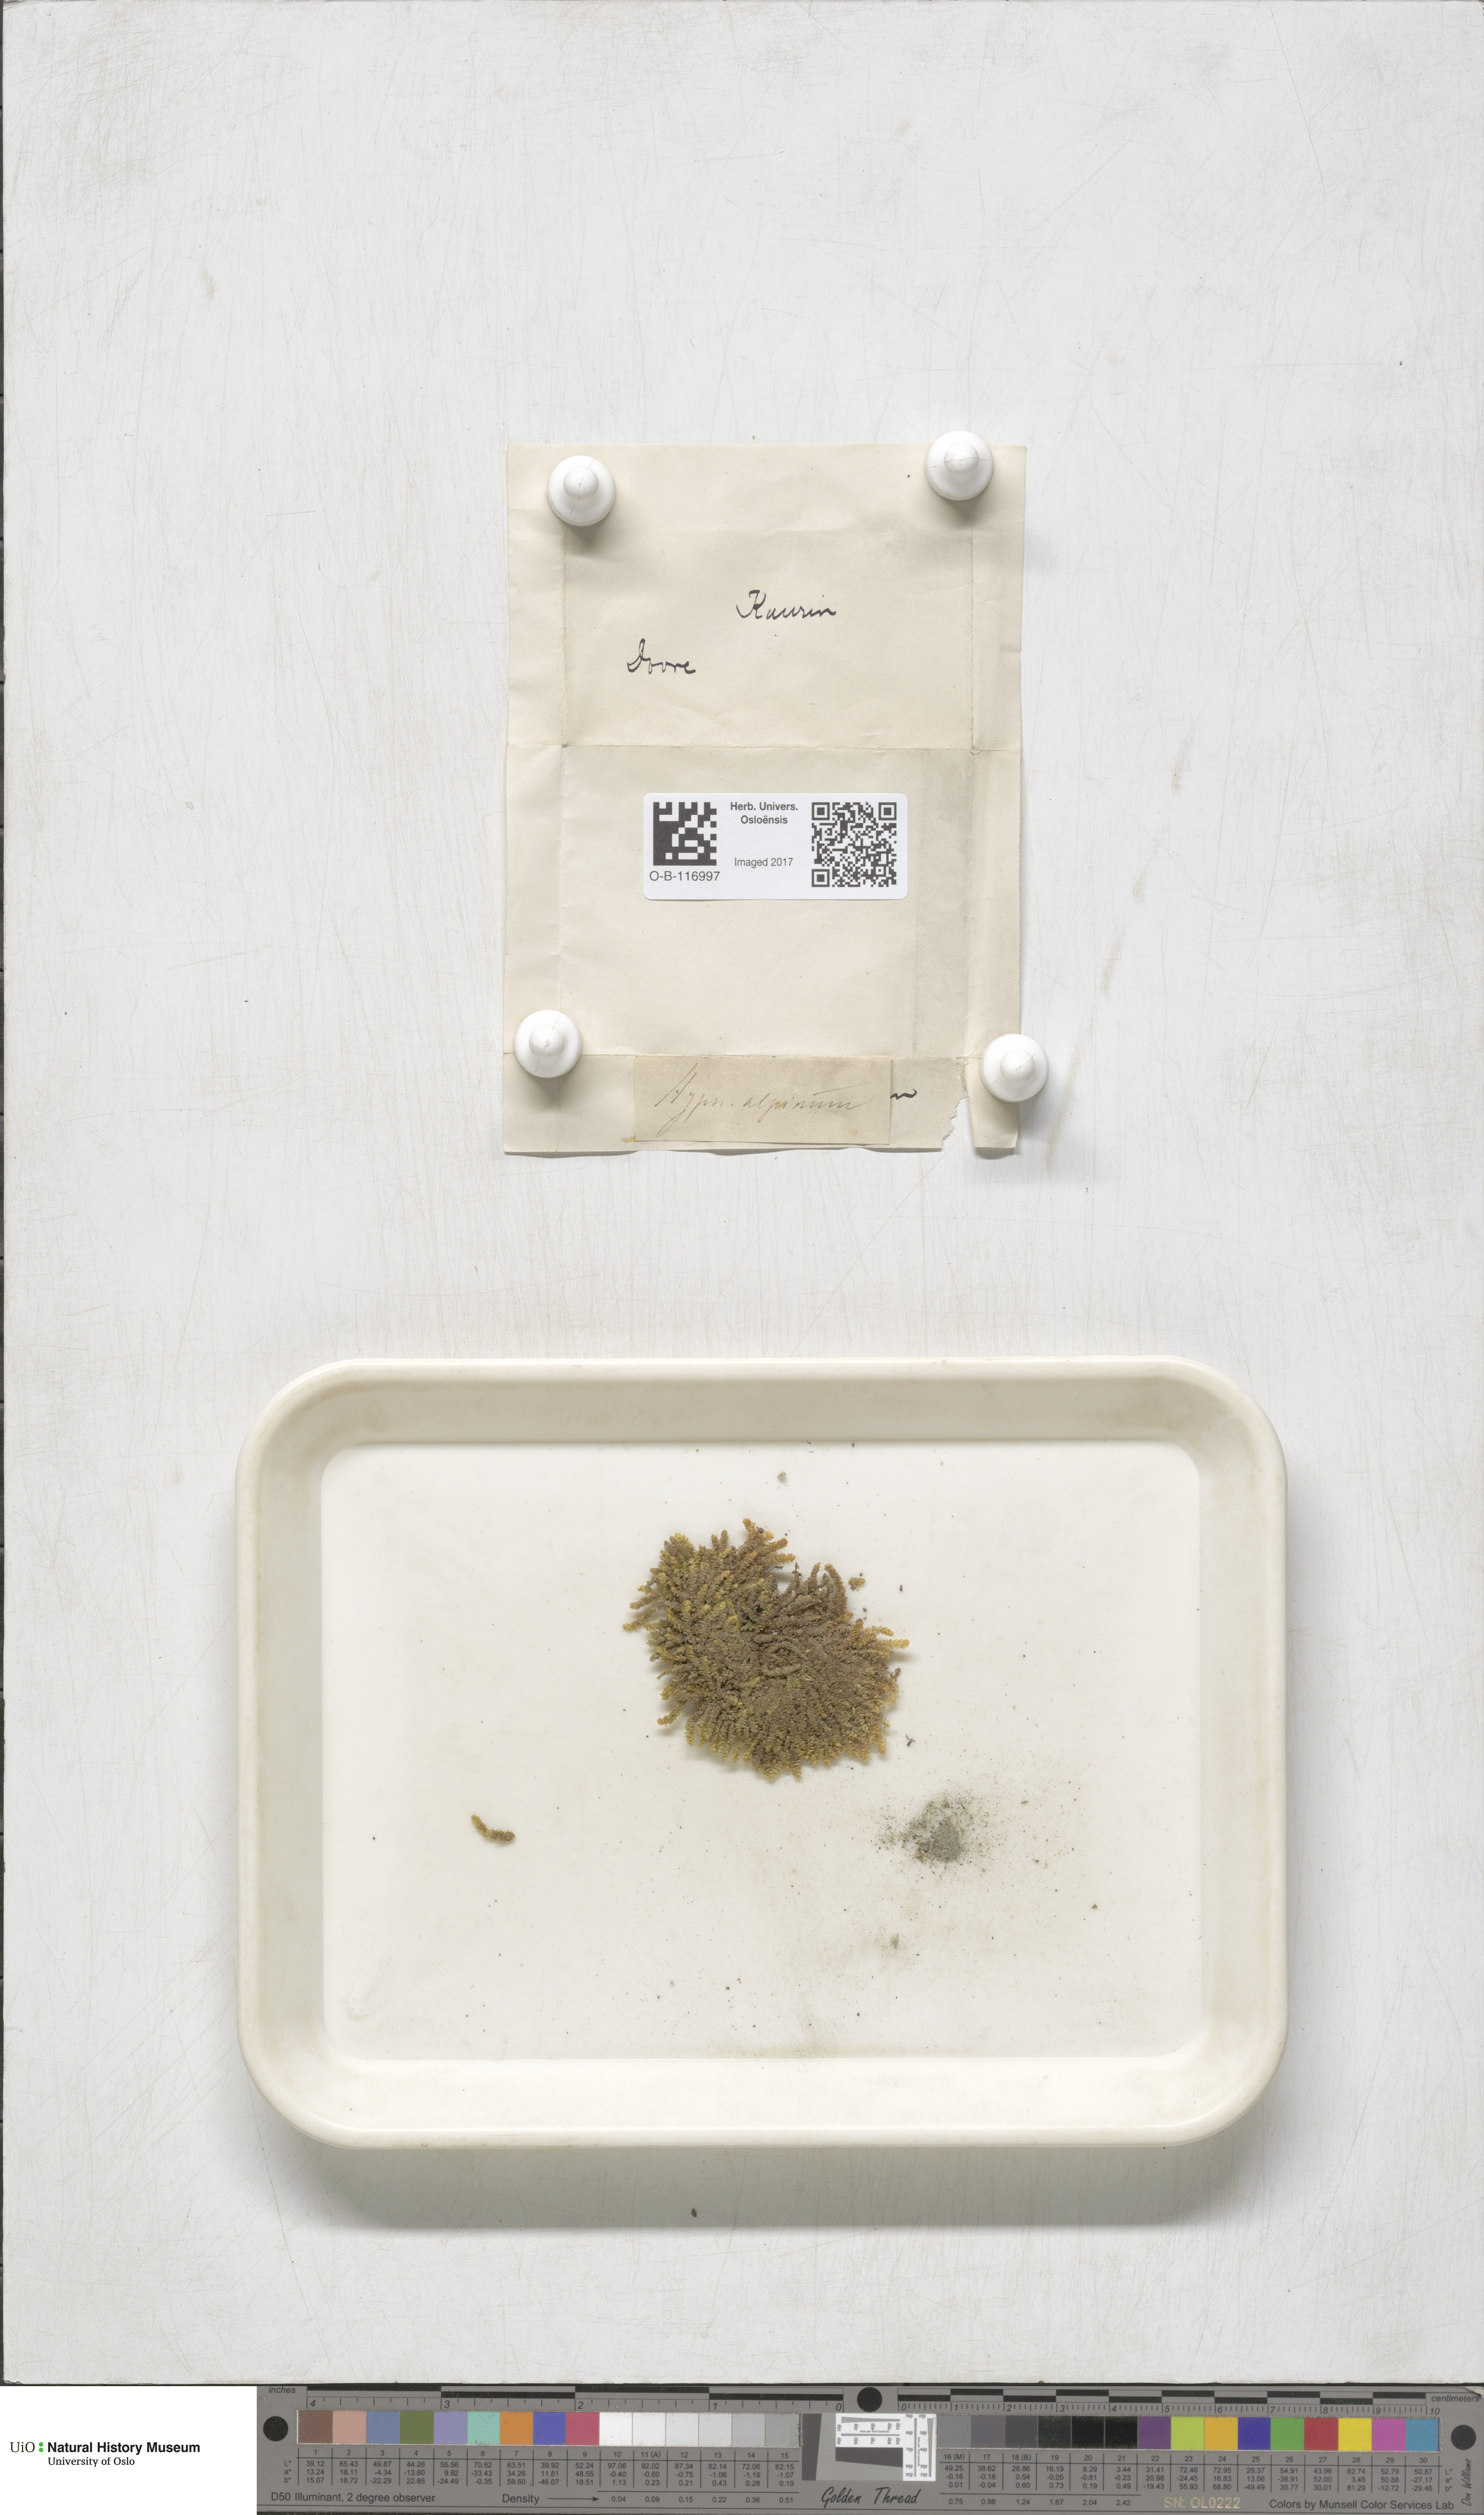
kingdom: Plantae
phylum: Bryophyta
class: Bryopsida
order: Hypnales
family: Amblystegiaceae
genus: Platyhypnum
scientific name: Platyhypnum alpinum
